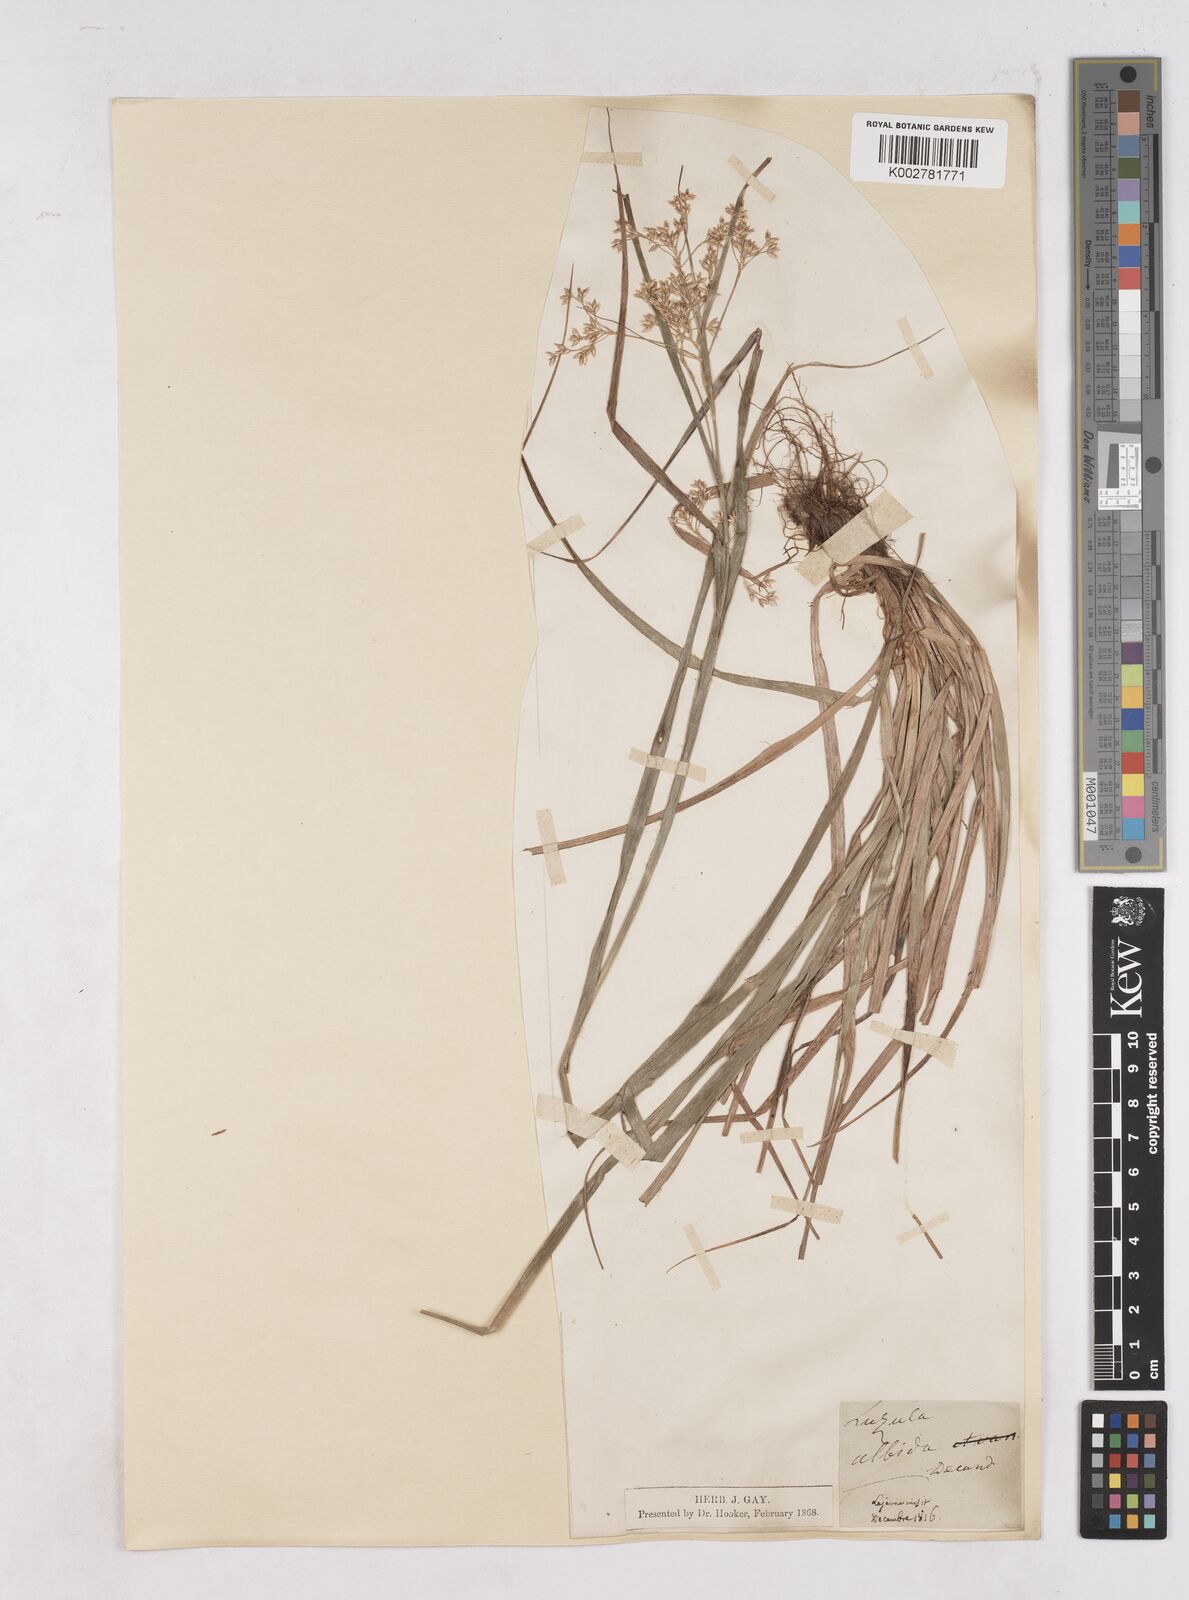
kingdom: Plantae
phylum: Tracheophyta
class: Liliopsida
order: Poales
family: Juncaceae
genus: Luzula
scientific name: Luzula luzuloides
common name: White wood-rush
